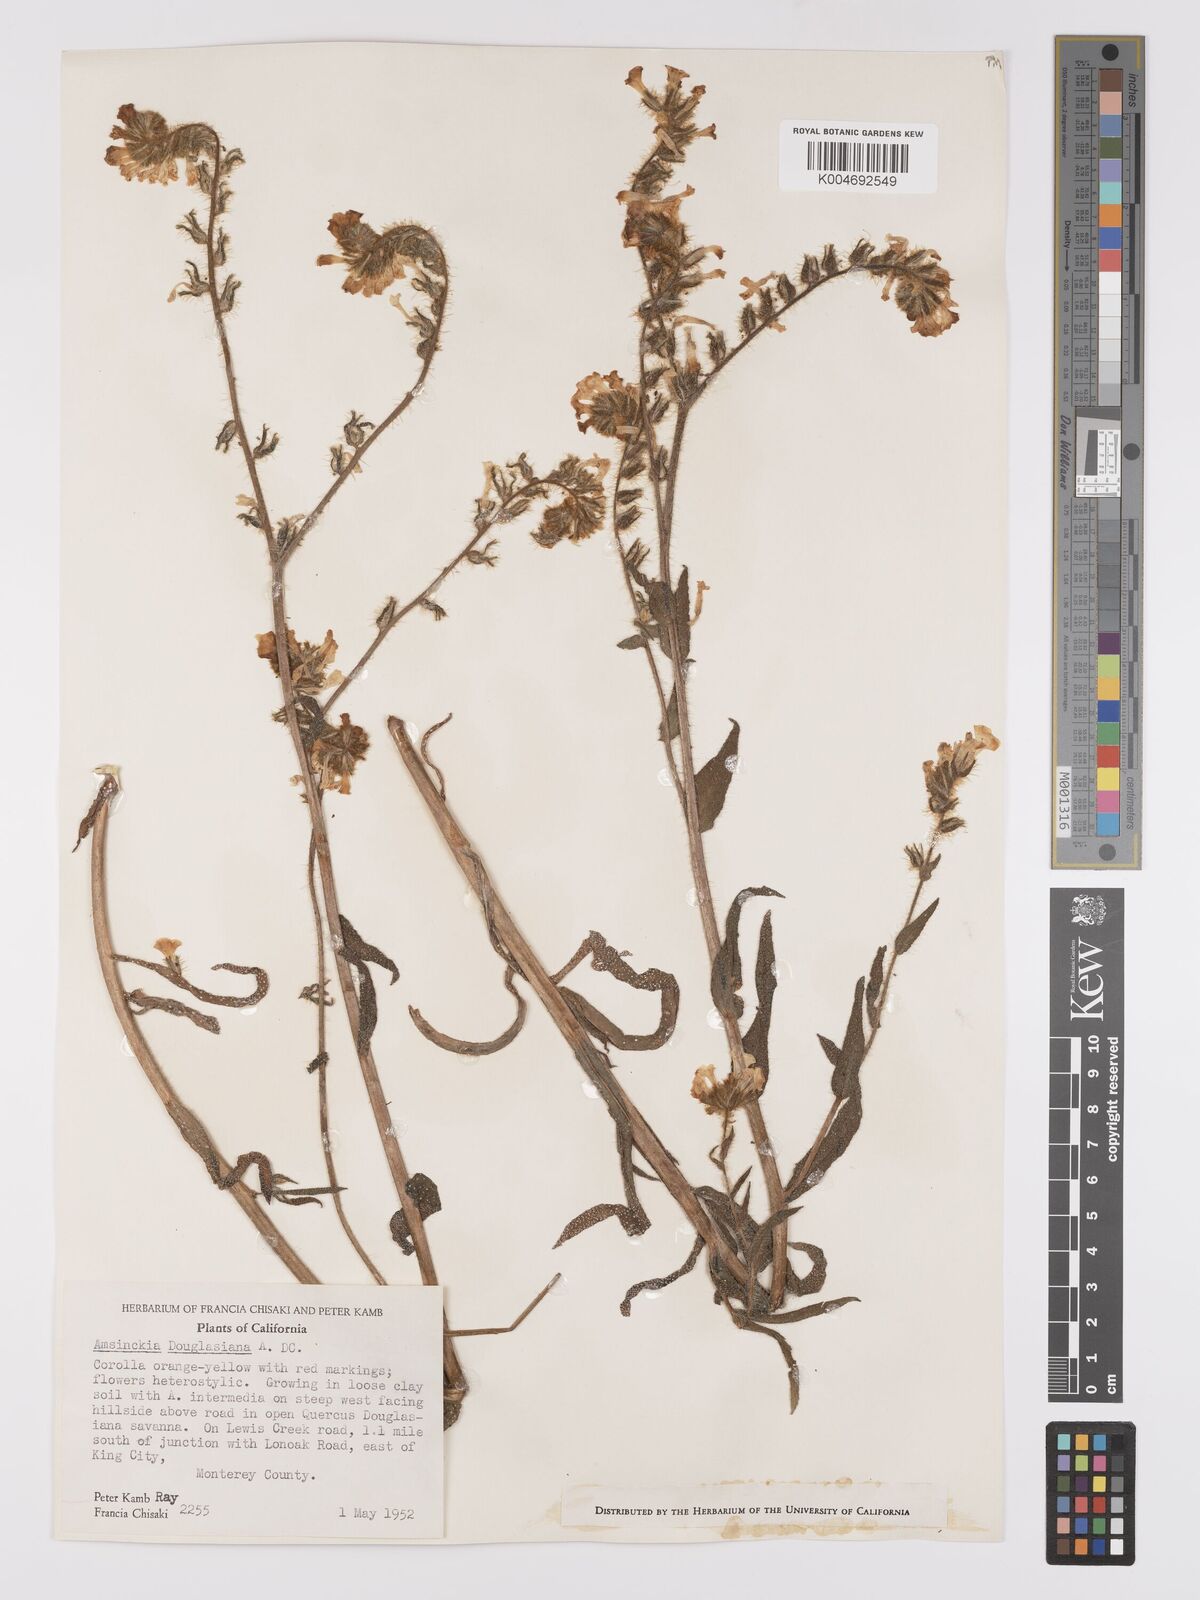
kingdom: Plantae
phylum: Tracheophyta
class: Magnoliopsida
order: Boraginales
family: Boraginaceae
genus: Amsinckia
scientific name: Amsinckia douglasiana
